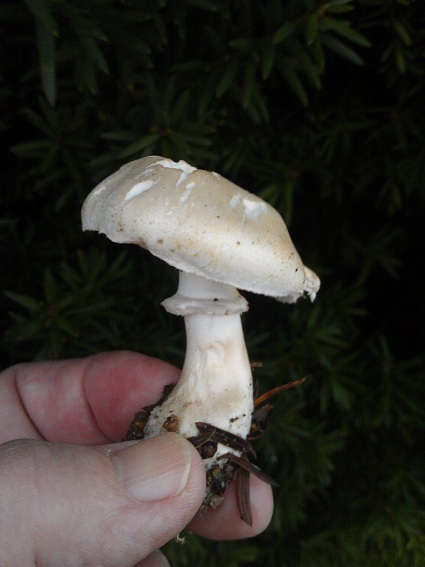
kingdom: Fungi
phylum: Basidiomycota
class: Agaricomycetes
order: Agaricales
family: Agaricaceae
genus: Leucoagaricus
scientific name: Leucoagaricus leucothites
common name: rosabladet silkehat
